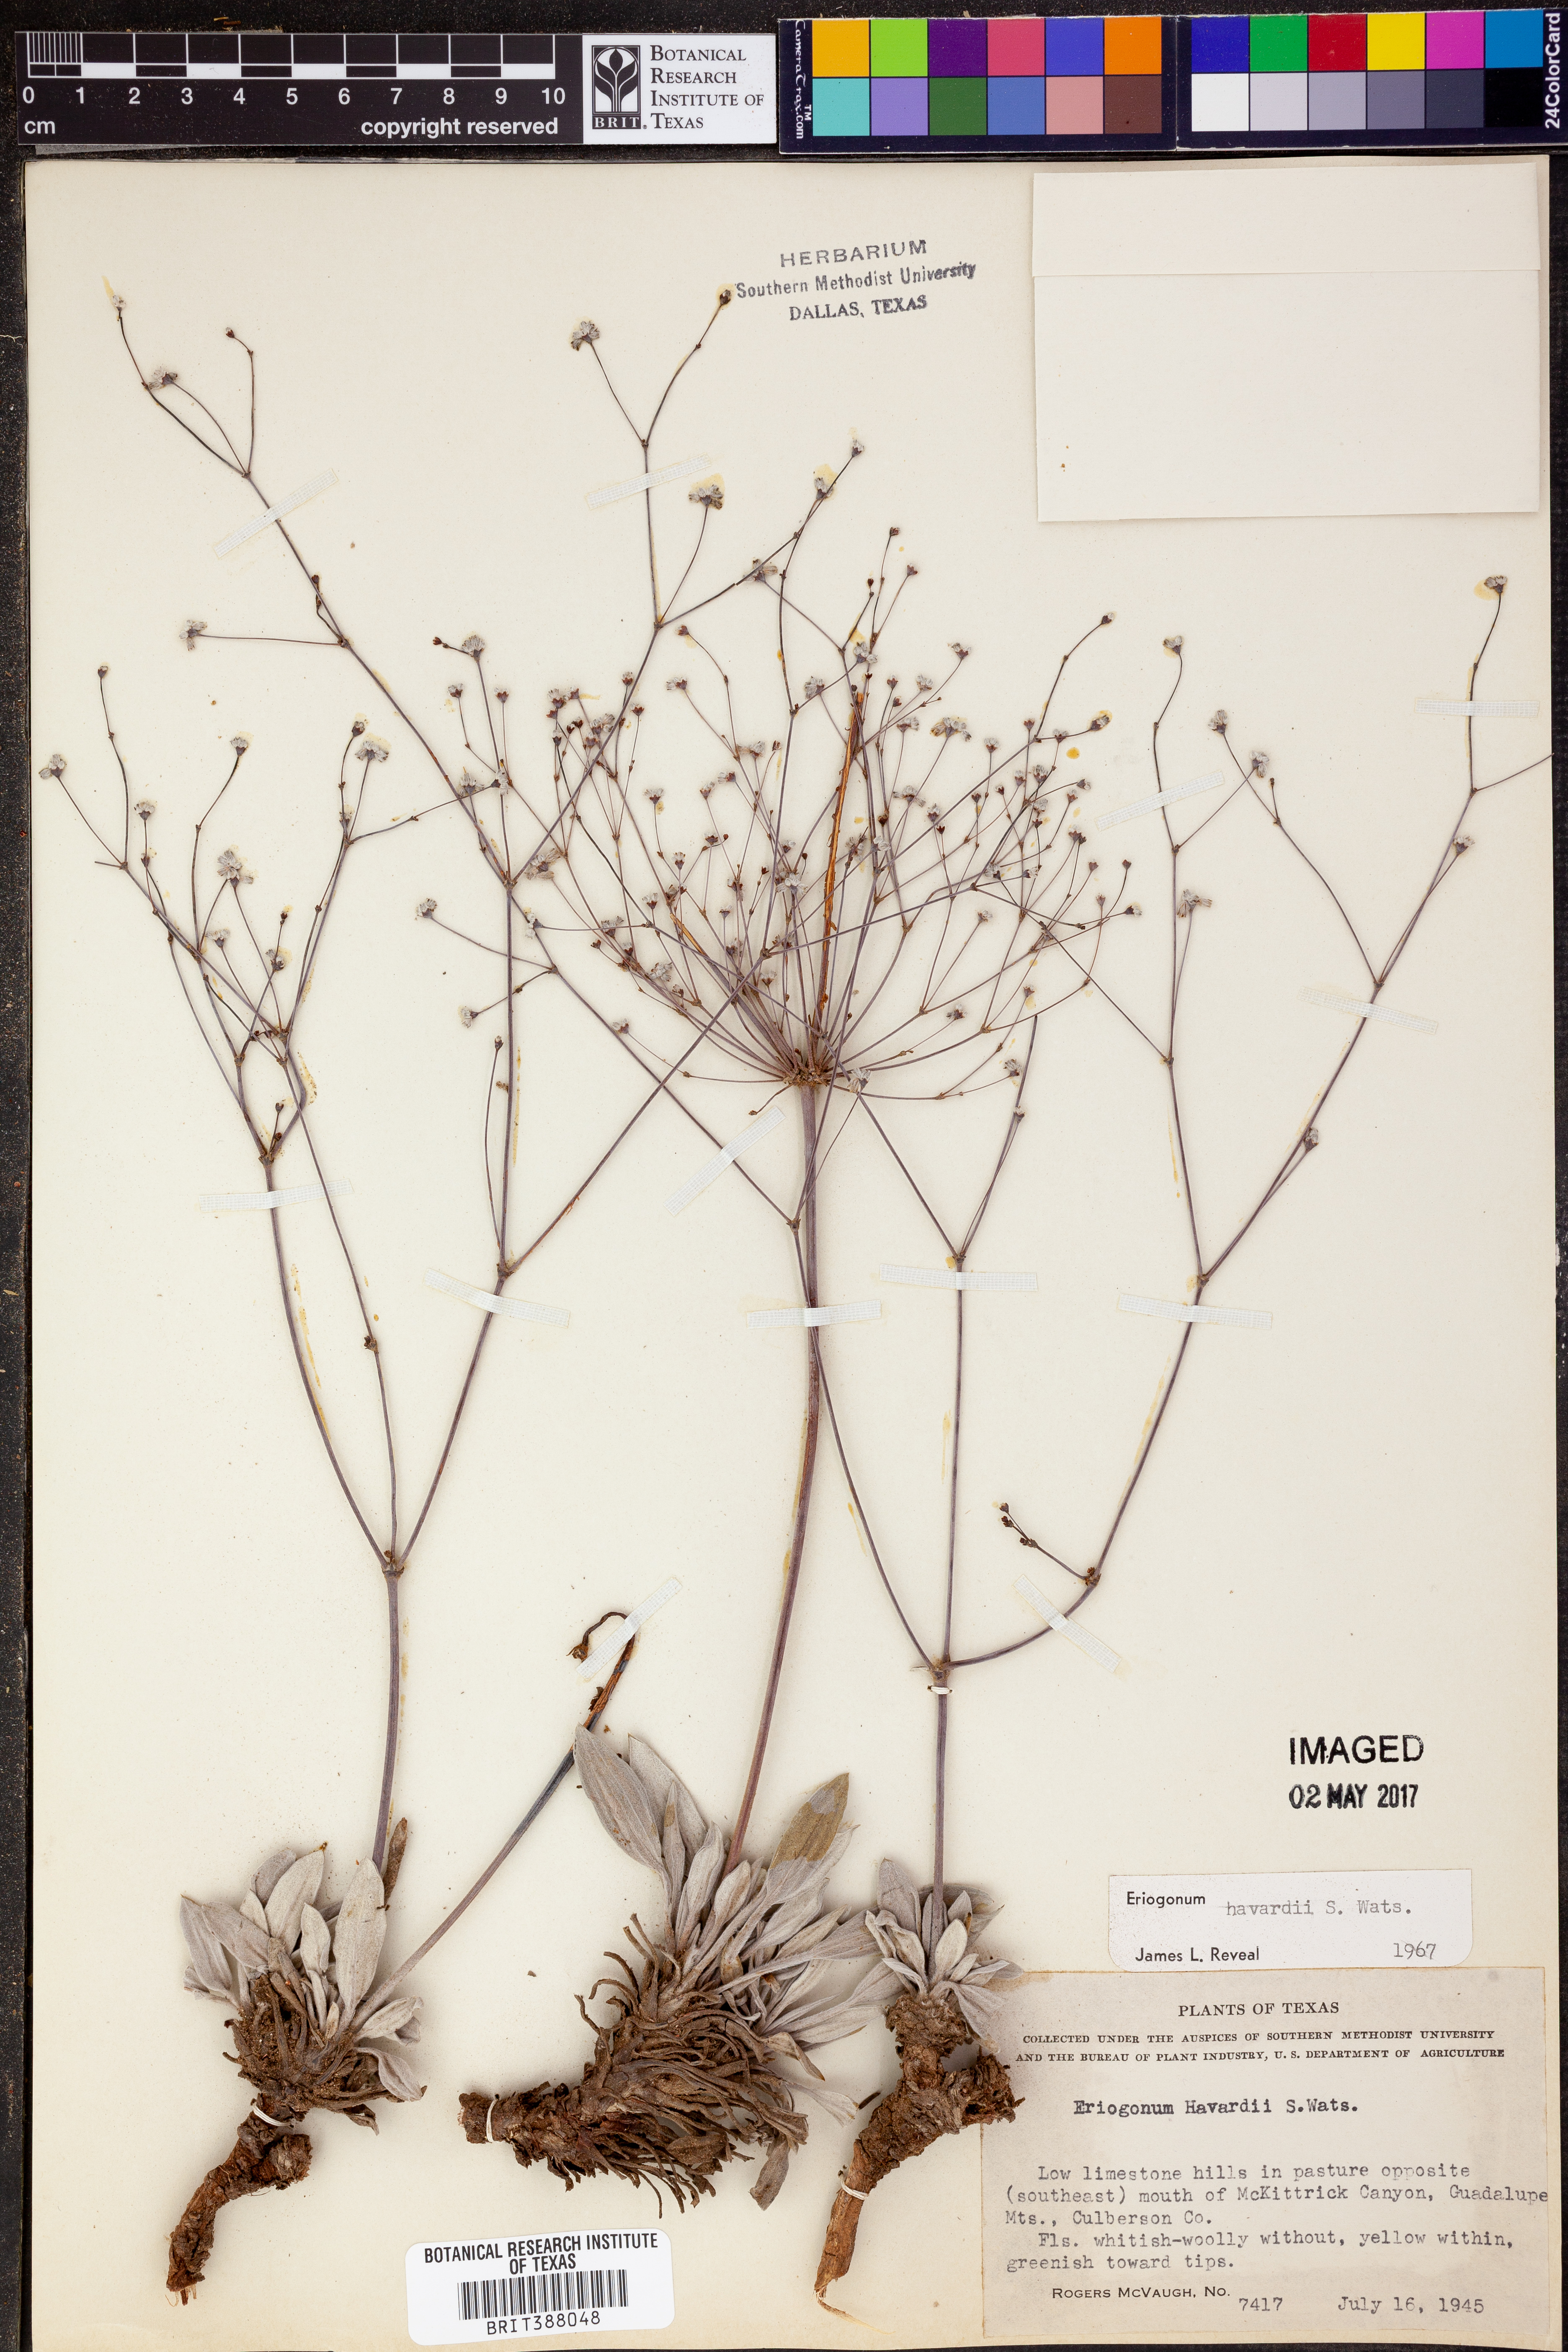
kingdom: Plantae
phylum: Tracheophyta
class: Magnoliopsida
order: Caryophyllales
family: Polygonaceae
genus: Eriogonum
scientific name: Eriogonum havardii
